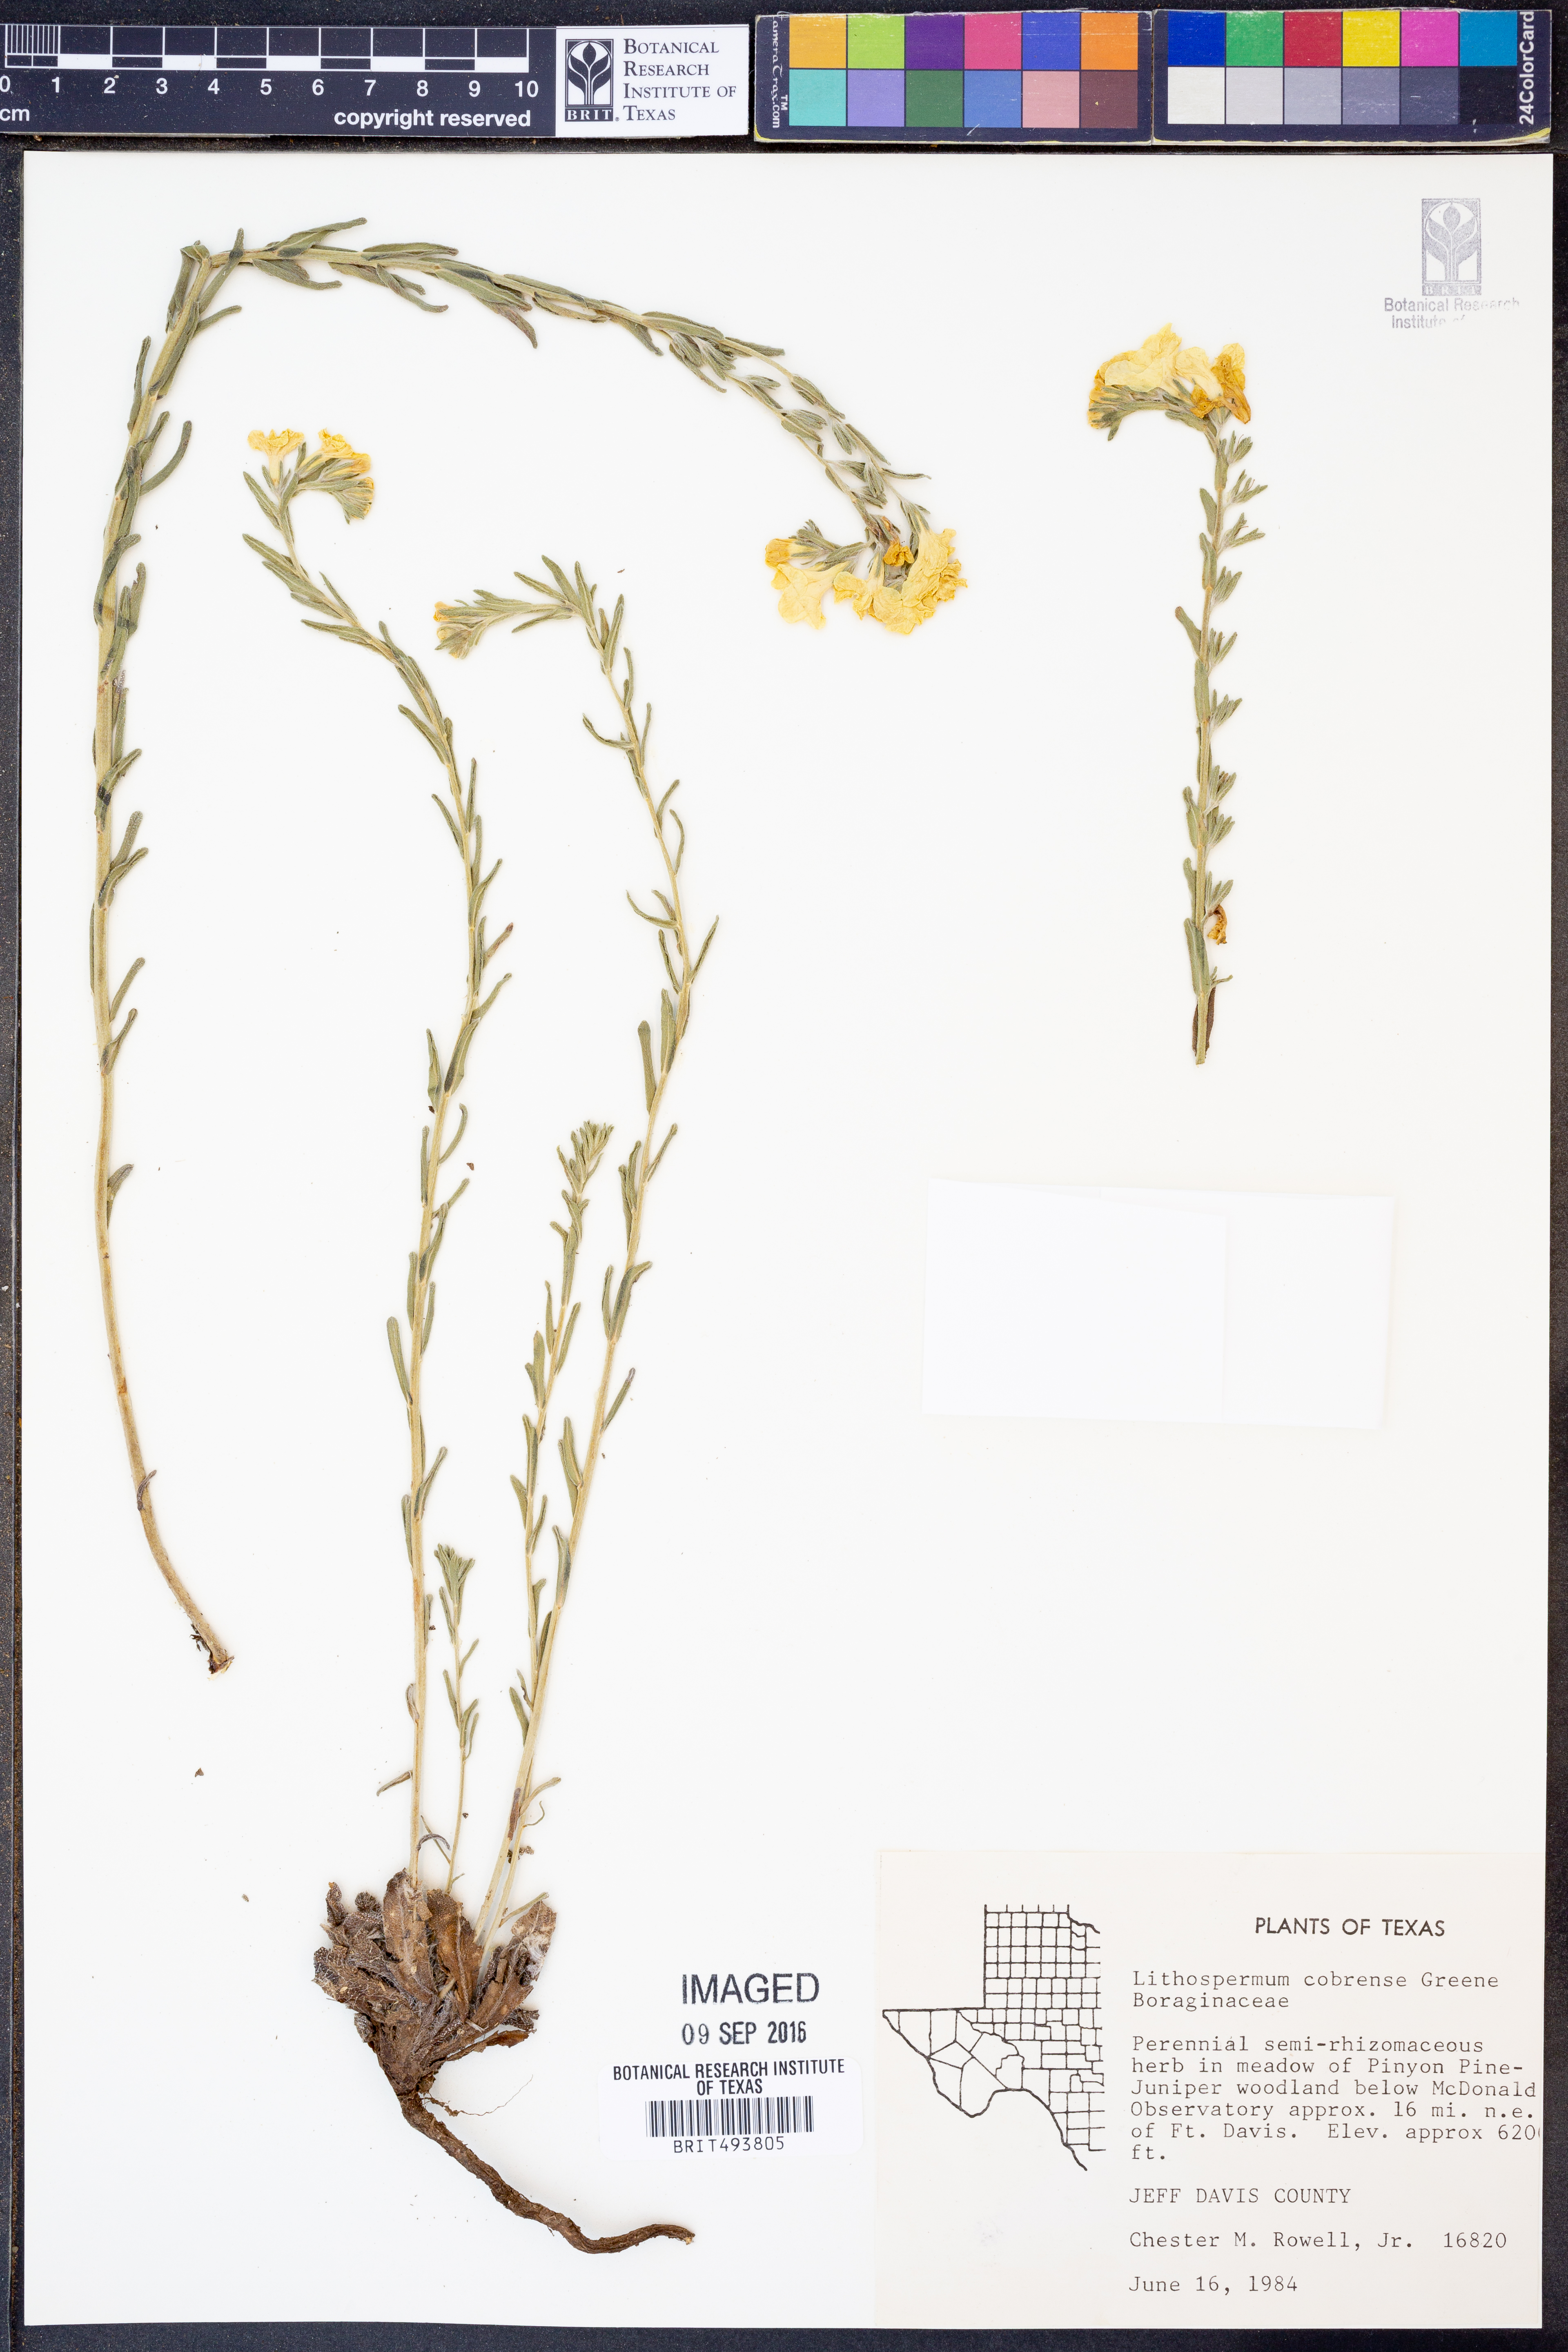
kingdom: Plantae
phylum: Tracheophyta
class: Magnoliopsida
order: Boraginales
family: Boraginaceae
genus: Lithospermum
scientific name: Lithospermum cobrense
